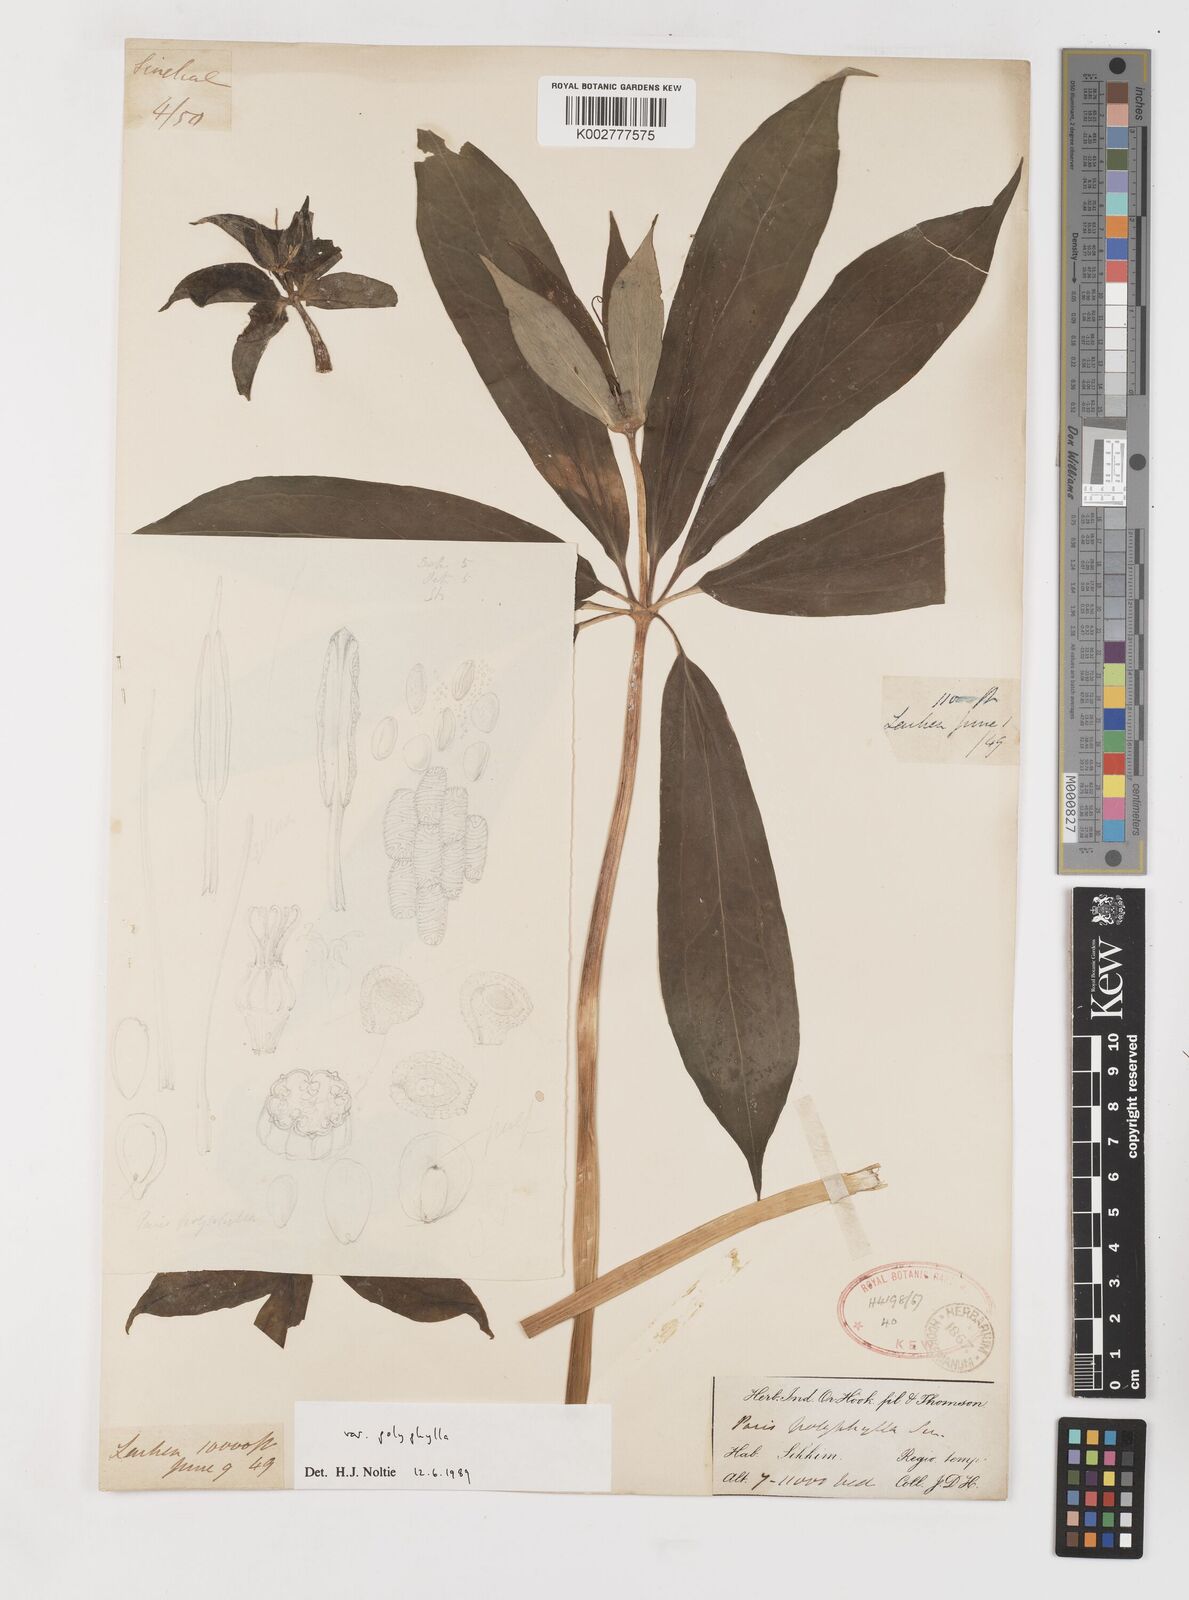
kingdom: Plantae
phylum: Tracheophyta
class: Liliopsida
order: Liliales
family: Melanthiaceae
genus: Paris
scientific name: Paris delavayi
